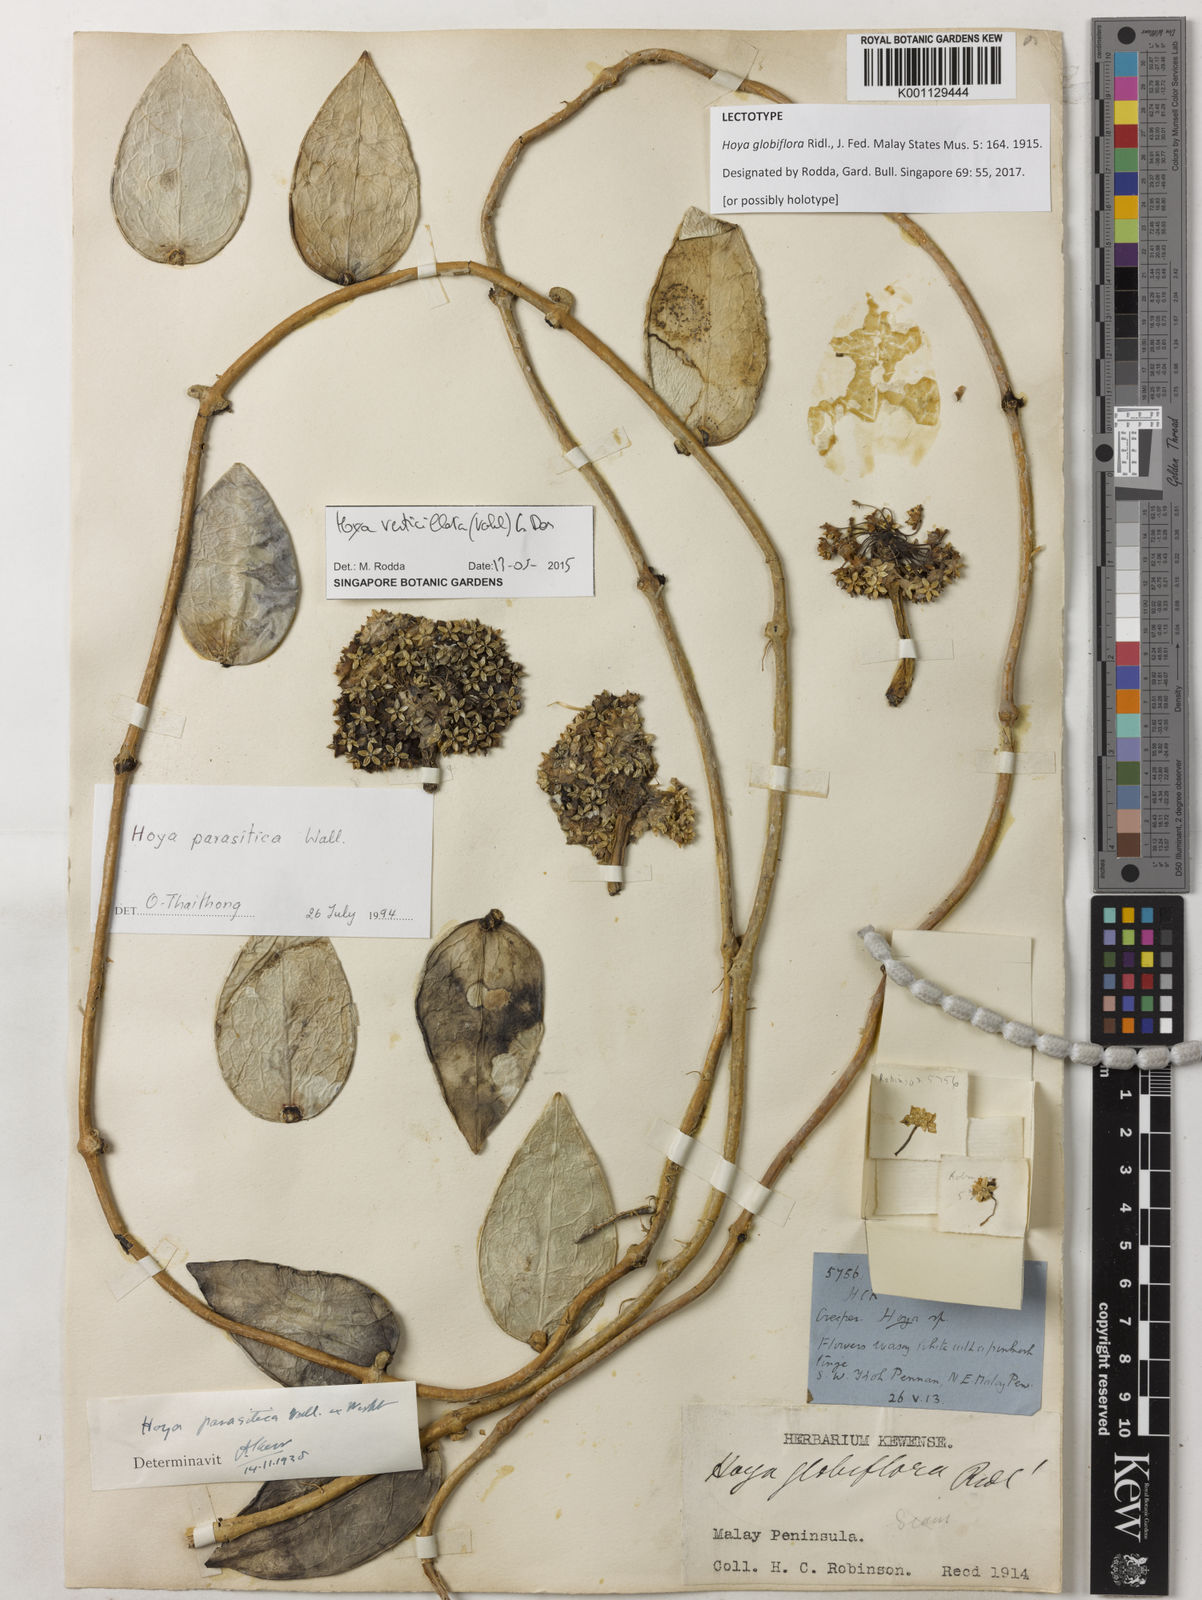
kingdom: Plantae
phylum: Tracheophyta
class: Magnoliopsida
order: Gentianales
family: Apocynaceae
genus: Hoya
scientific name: Hoya verticillata
